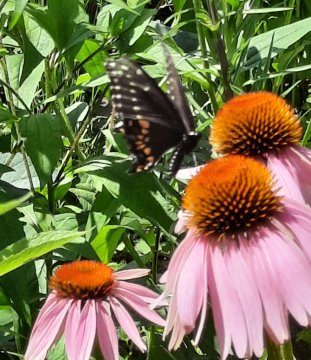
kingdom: Animalia
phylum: Arthropoda
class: Insecta
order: Lepidoptera
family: Papilionidae
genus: Papilio
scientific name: Papilio polyxenes
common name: Black Swallowtail
